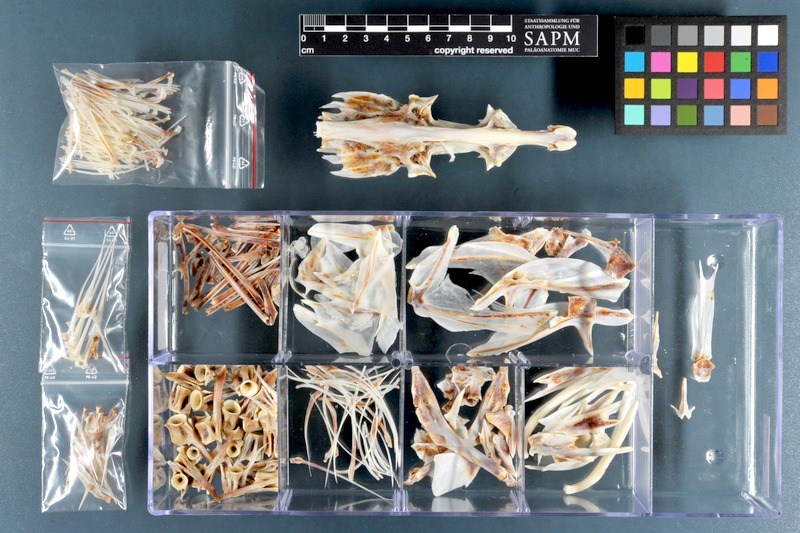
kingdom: Animalia
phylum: Chordata
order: Scorpaeniformes
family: Platycephalidae
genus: Cociella
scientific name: Cociella crocodilus
